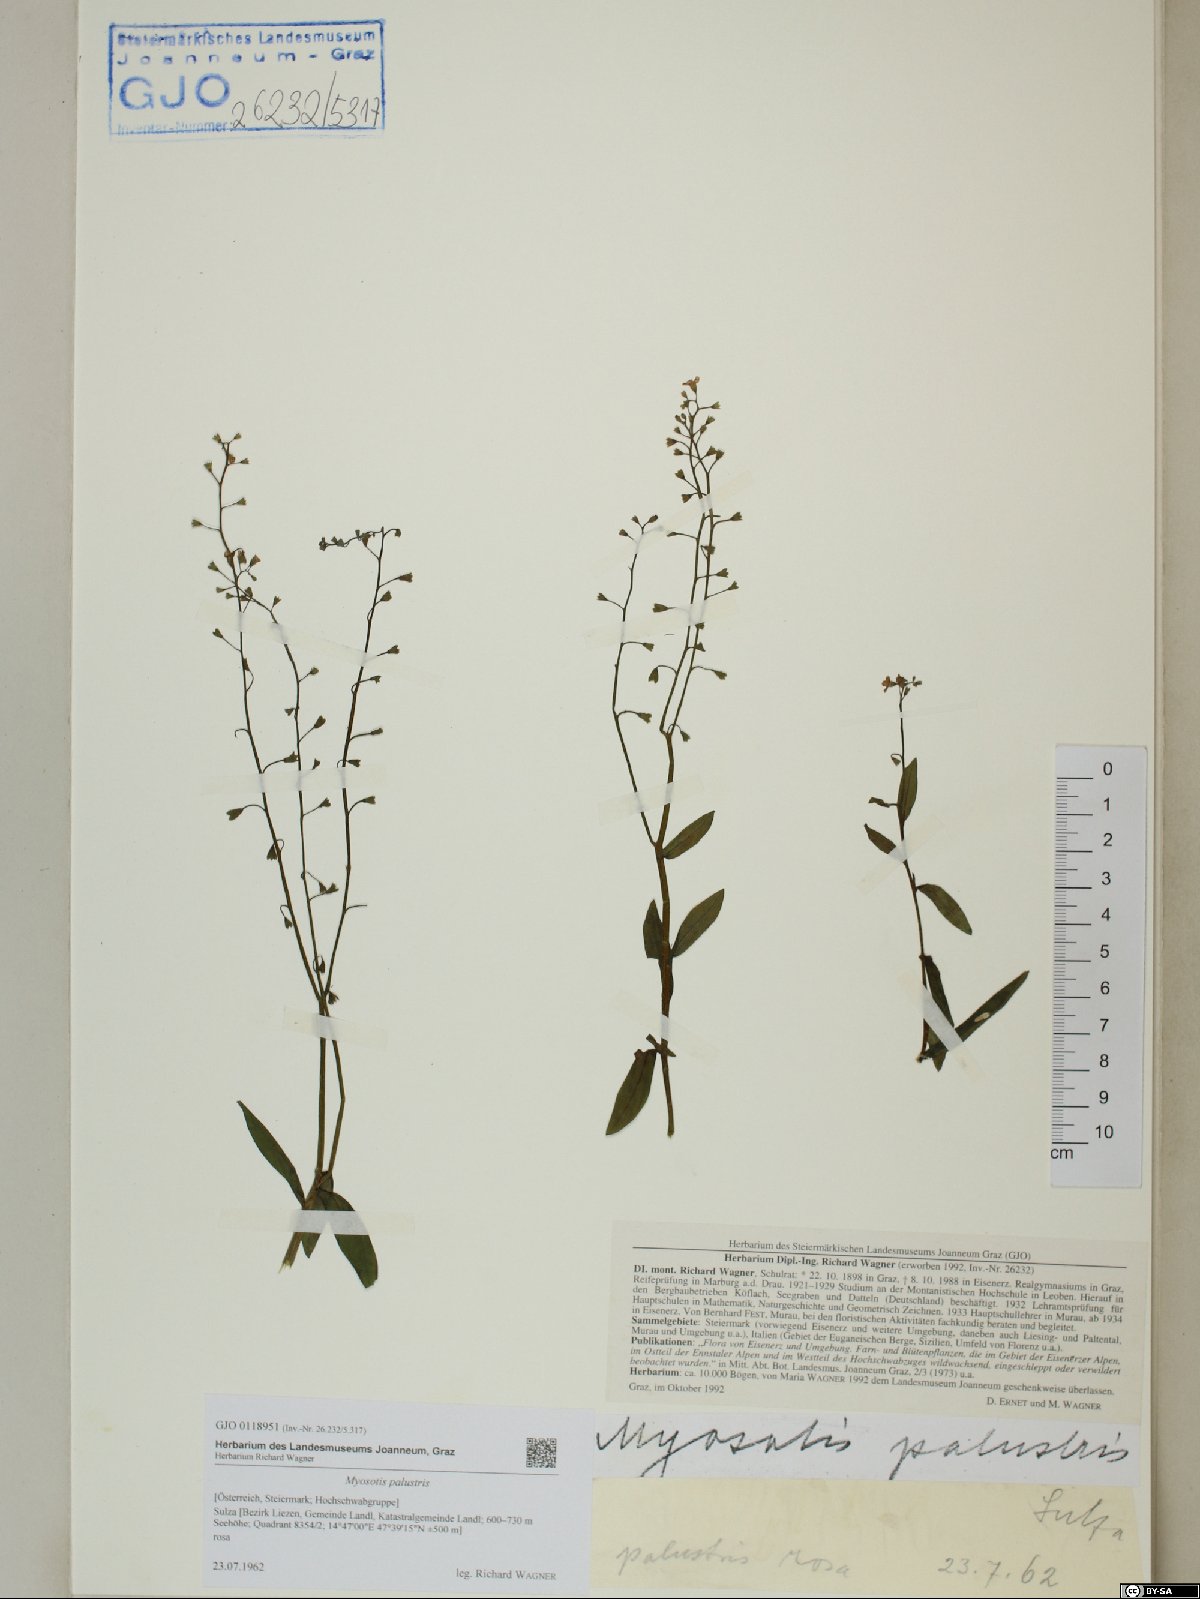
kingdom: Plantae
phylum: Tracheophyta
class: Magnoliopsida
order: Boraginales
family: Boraginaceae
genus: Myosotis
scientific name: Myosotis scorpioides
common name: Water forget-me-not
